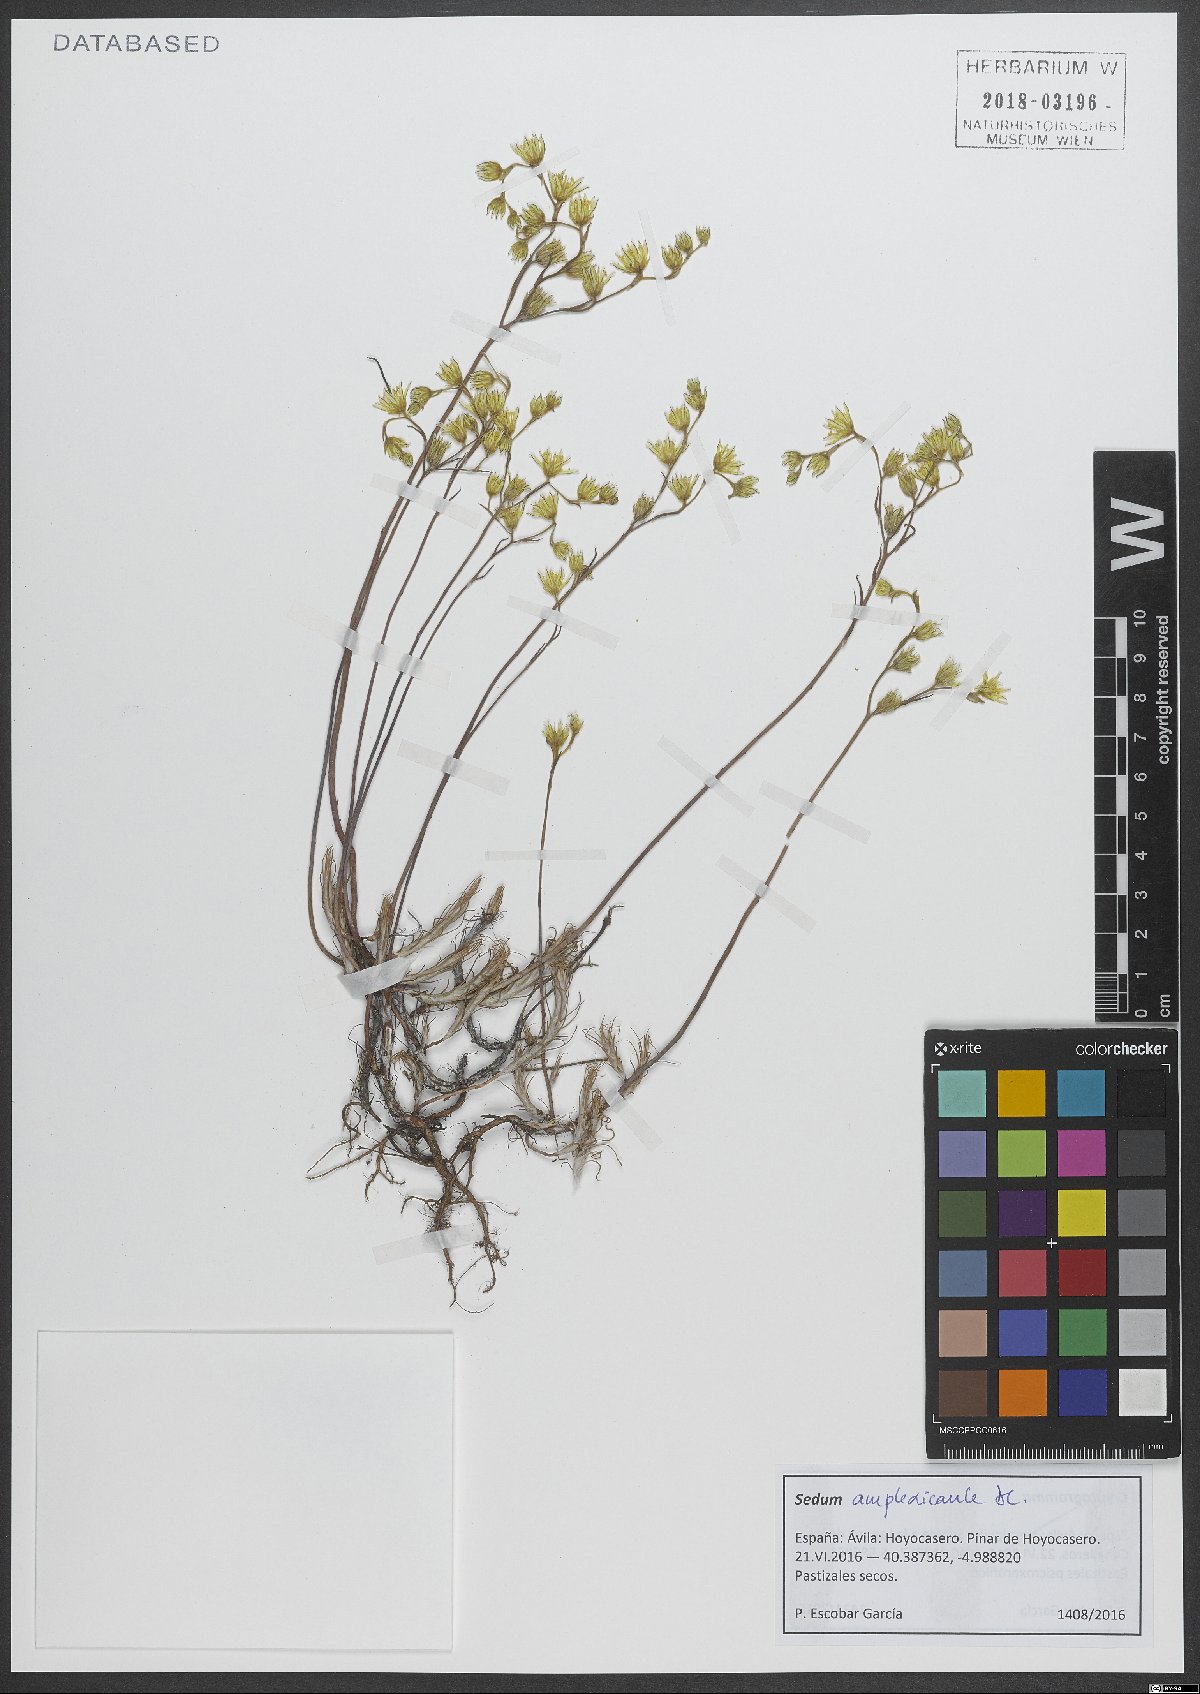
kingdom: Plantae
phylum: Tracheophyta
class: Magnoliopsida
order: Saxifragales
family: Crassulaceae
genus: Petrosedum
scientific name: Petrosedum amplexicaule
